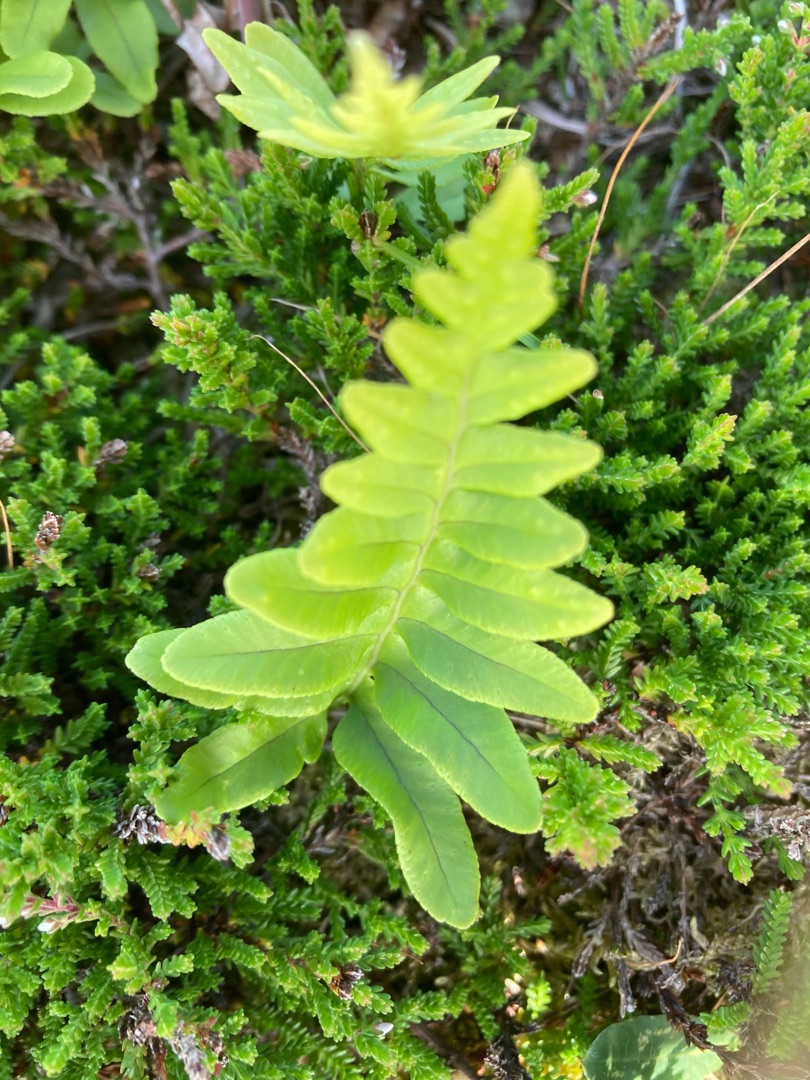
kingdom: Plantae
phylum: Tracheophyta
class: Polypodiopsida
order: Polypodiales
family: Polypodiaceae
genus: Polypodium
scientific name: Polypodium vulgare
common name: Almindelig engelsød
